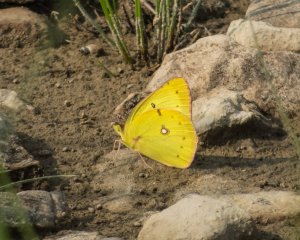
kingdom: Animalia
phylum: Arthropoda
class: Insecta
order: Lepidoptera
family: Pieridae
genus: Colias
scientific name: Colias philodice
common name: Clouded Sulphur
